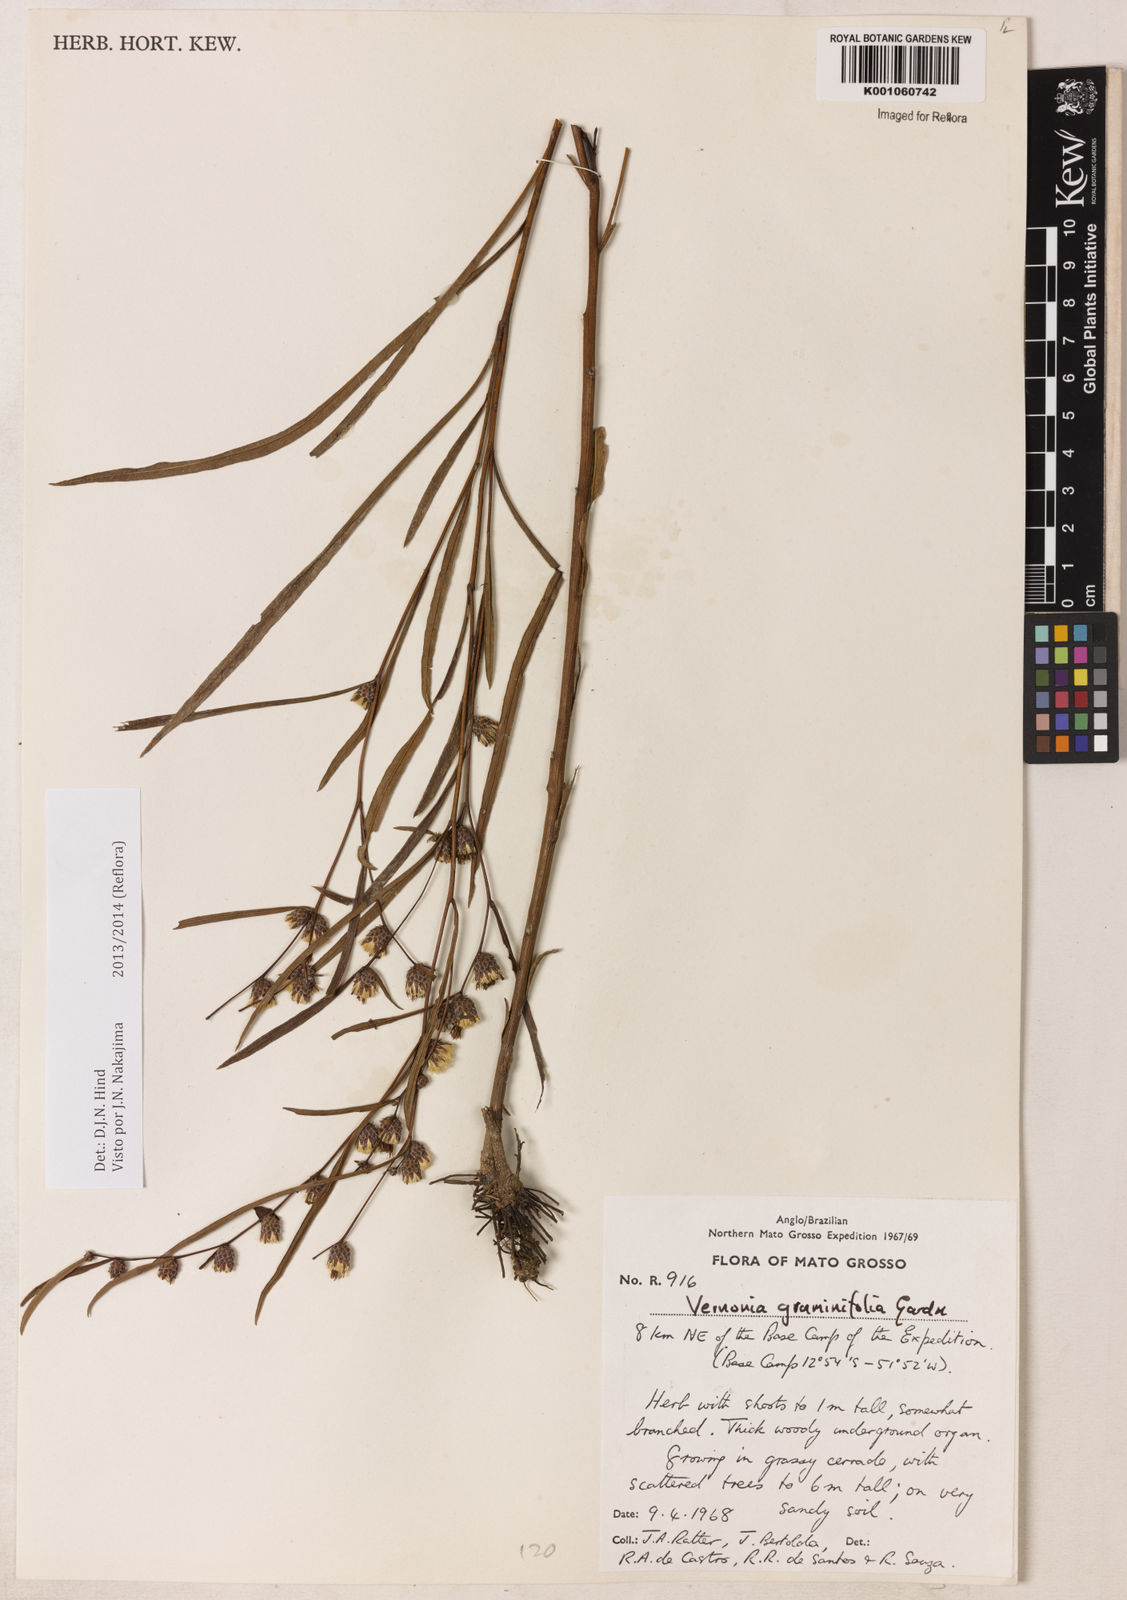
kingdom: Plantae
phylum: Tracheophyta
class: Magnoliopsida
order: Asterales
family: Asteraceae
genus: Lessingianthus
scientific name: Lessingianthus graminifolius
